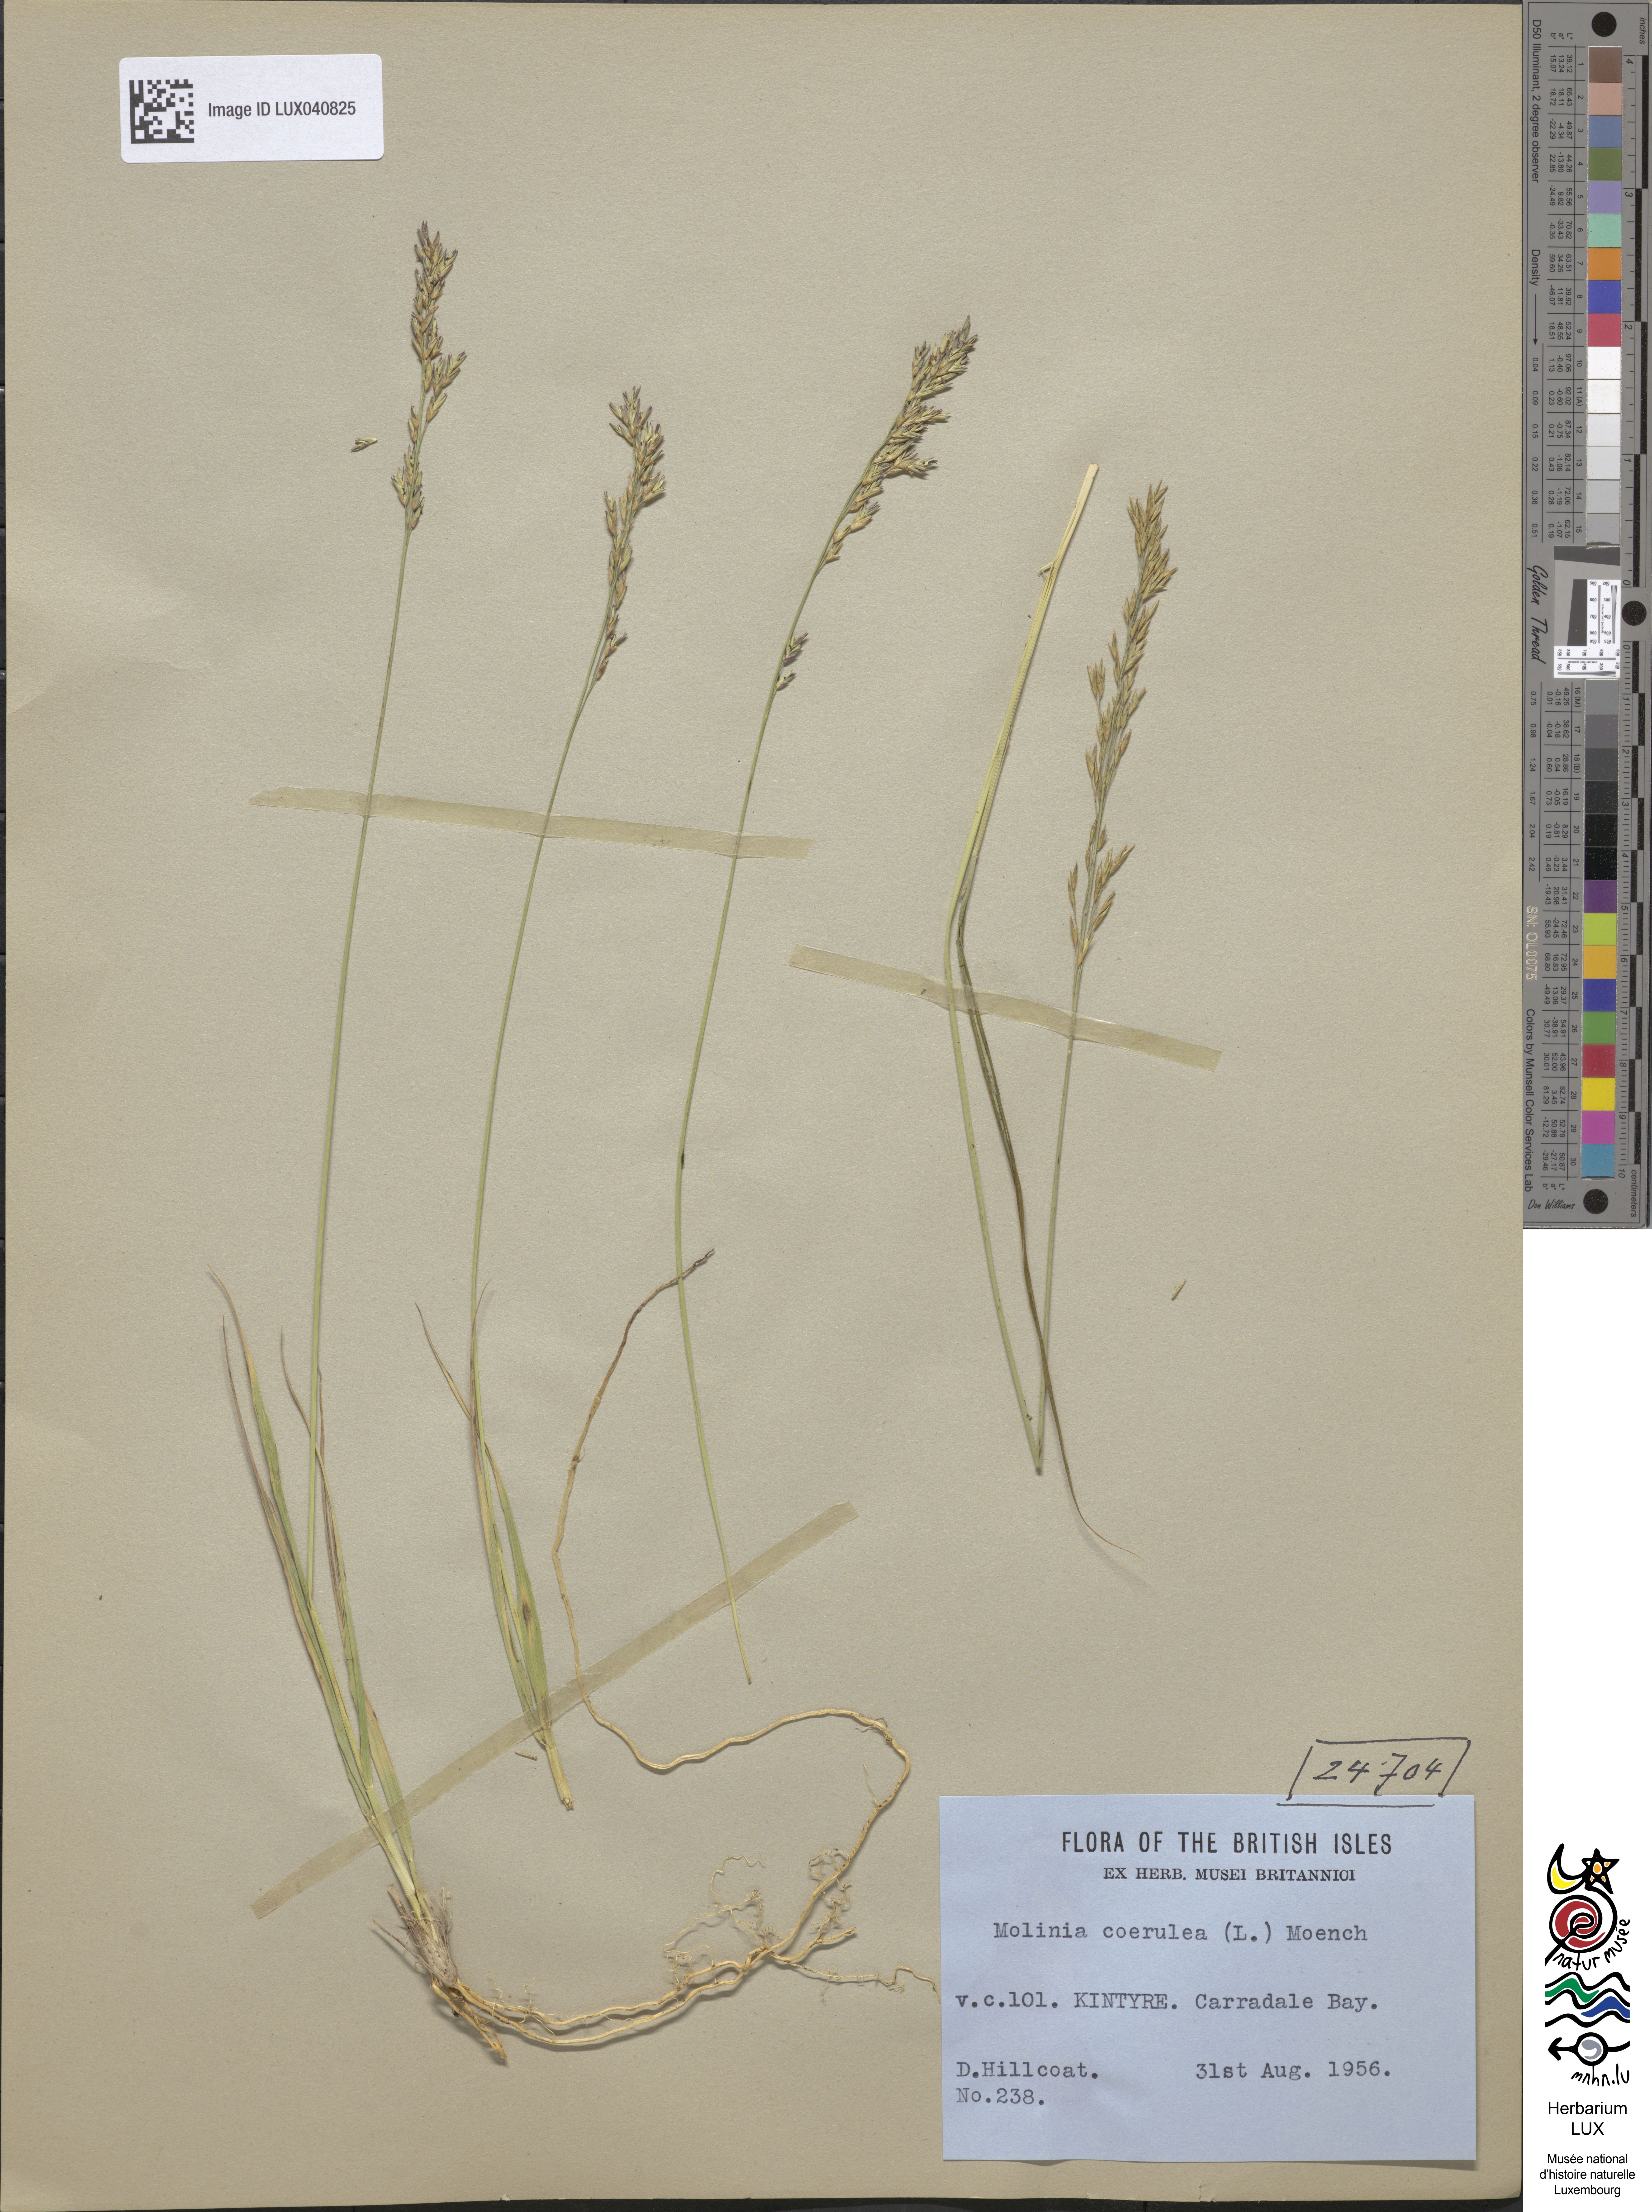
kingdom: Plantae
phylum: Tracheophyta
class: Liliopsida
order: Poales
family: Poaceae
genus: Molinia
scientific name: Molinia caerulea
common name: Purple moor-grass
